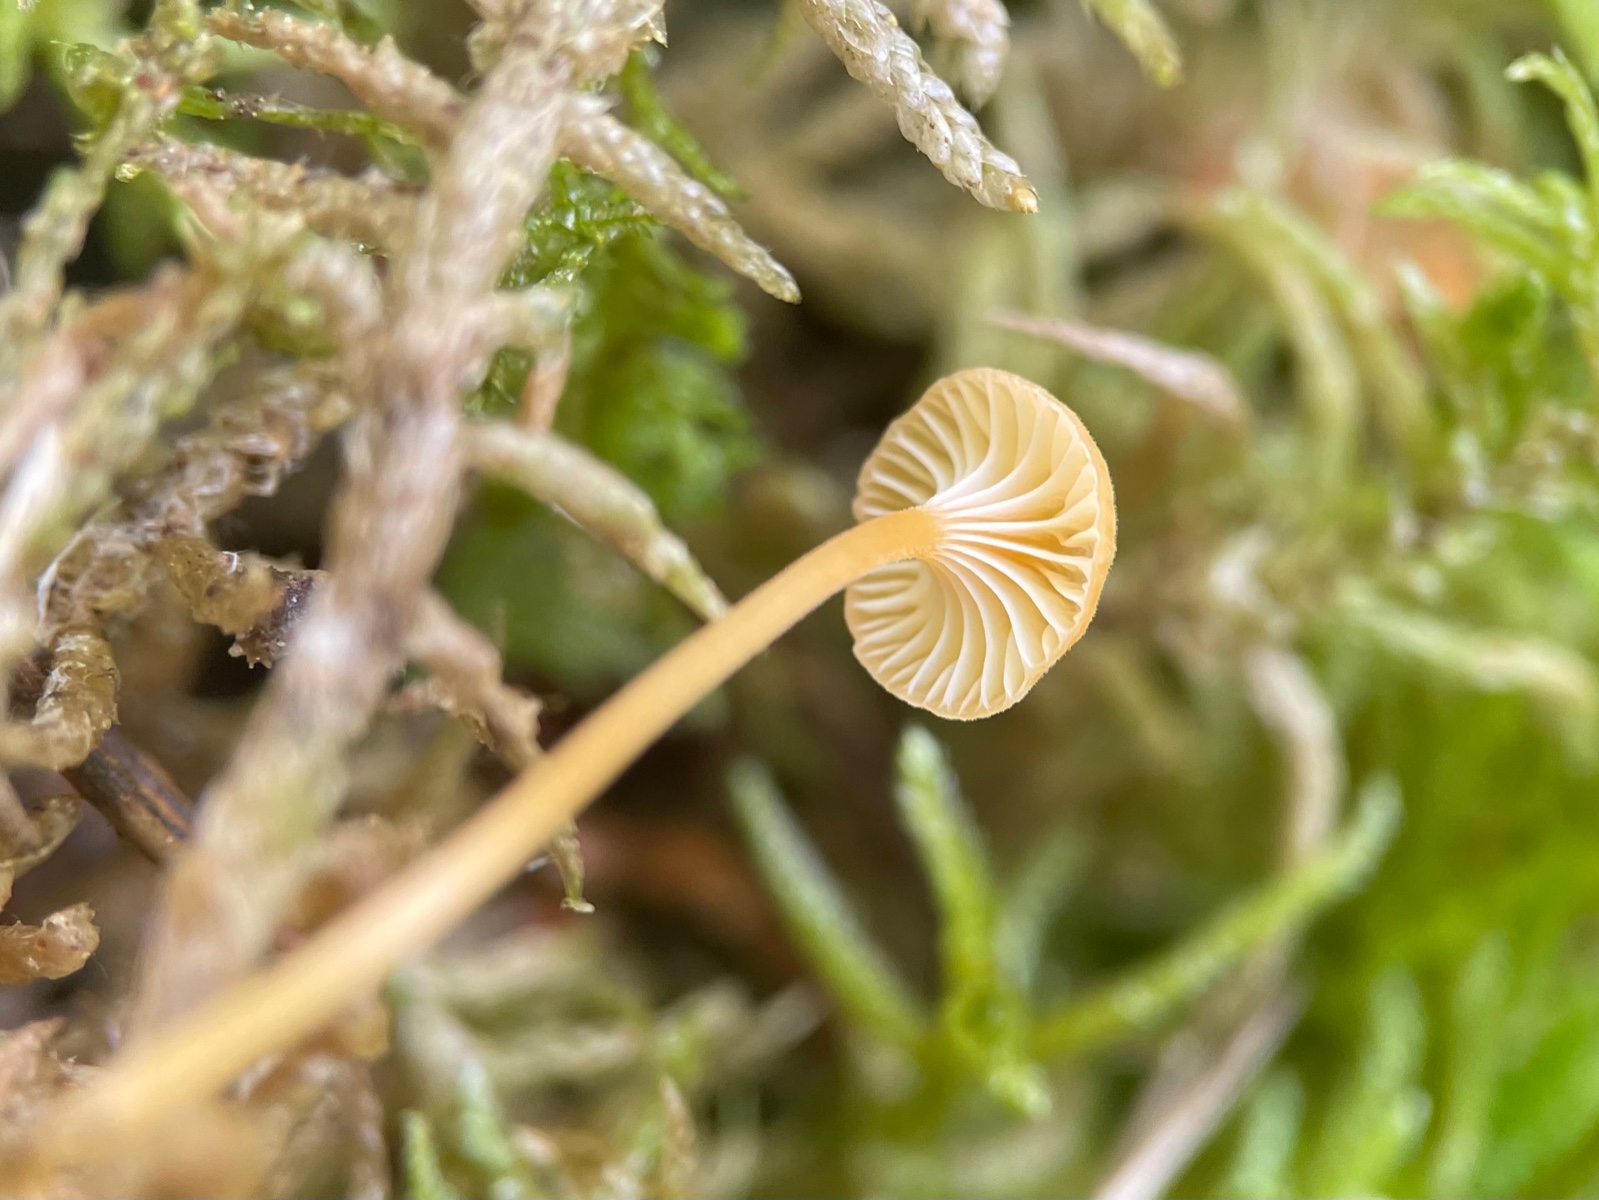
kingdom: Fungi
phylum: Basidiomycota
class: Agaricomycetes
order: Hymenochaetales
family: Rickenellaceae
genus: Rickenella
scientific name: Rickenella fibula
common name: orange mosnavlehat
